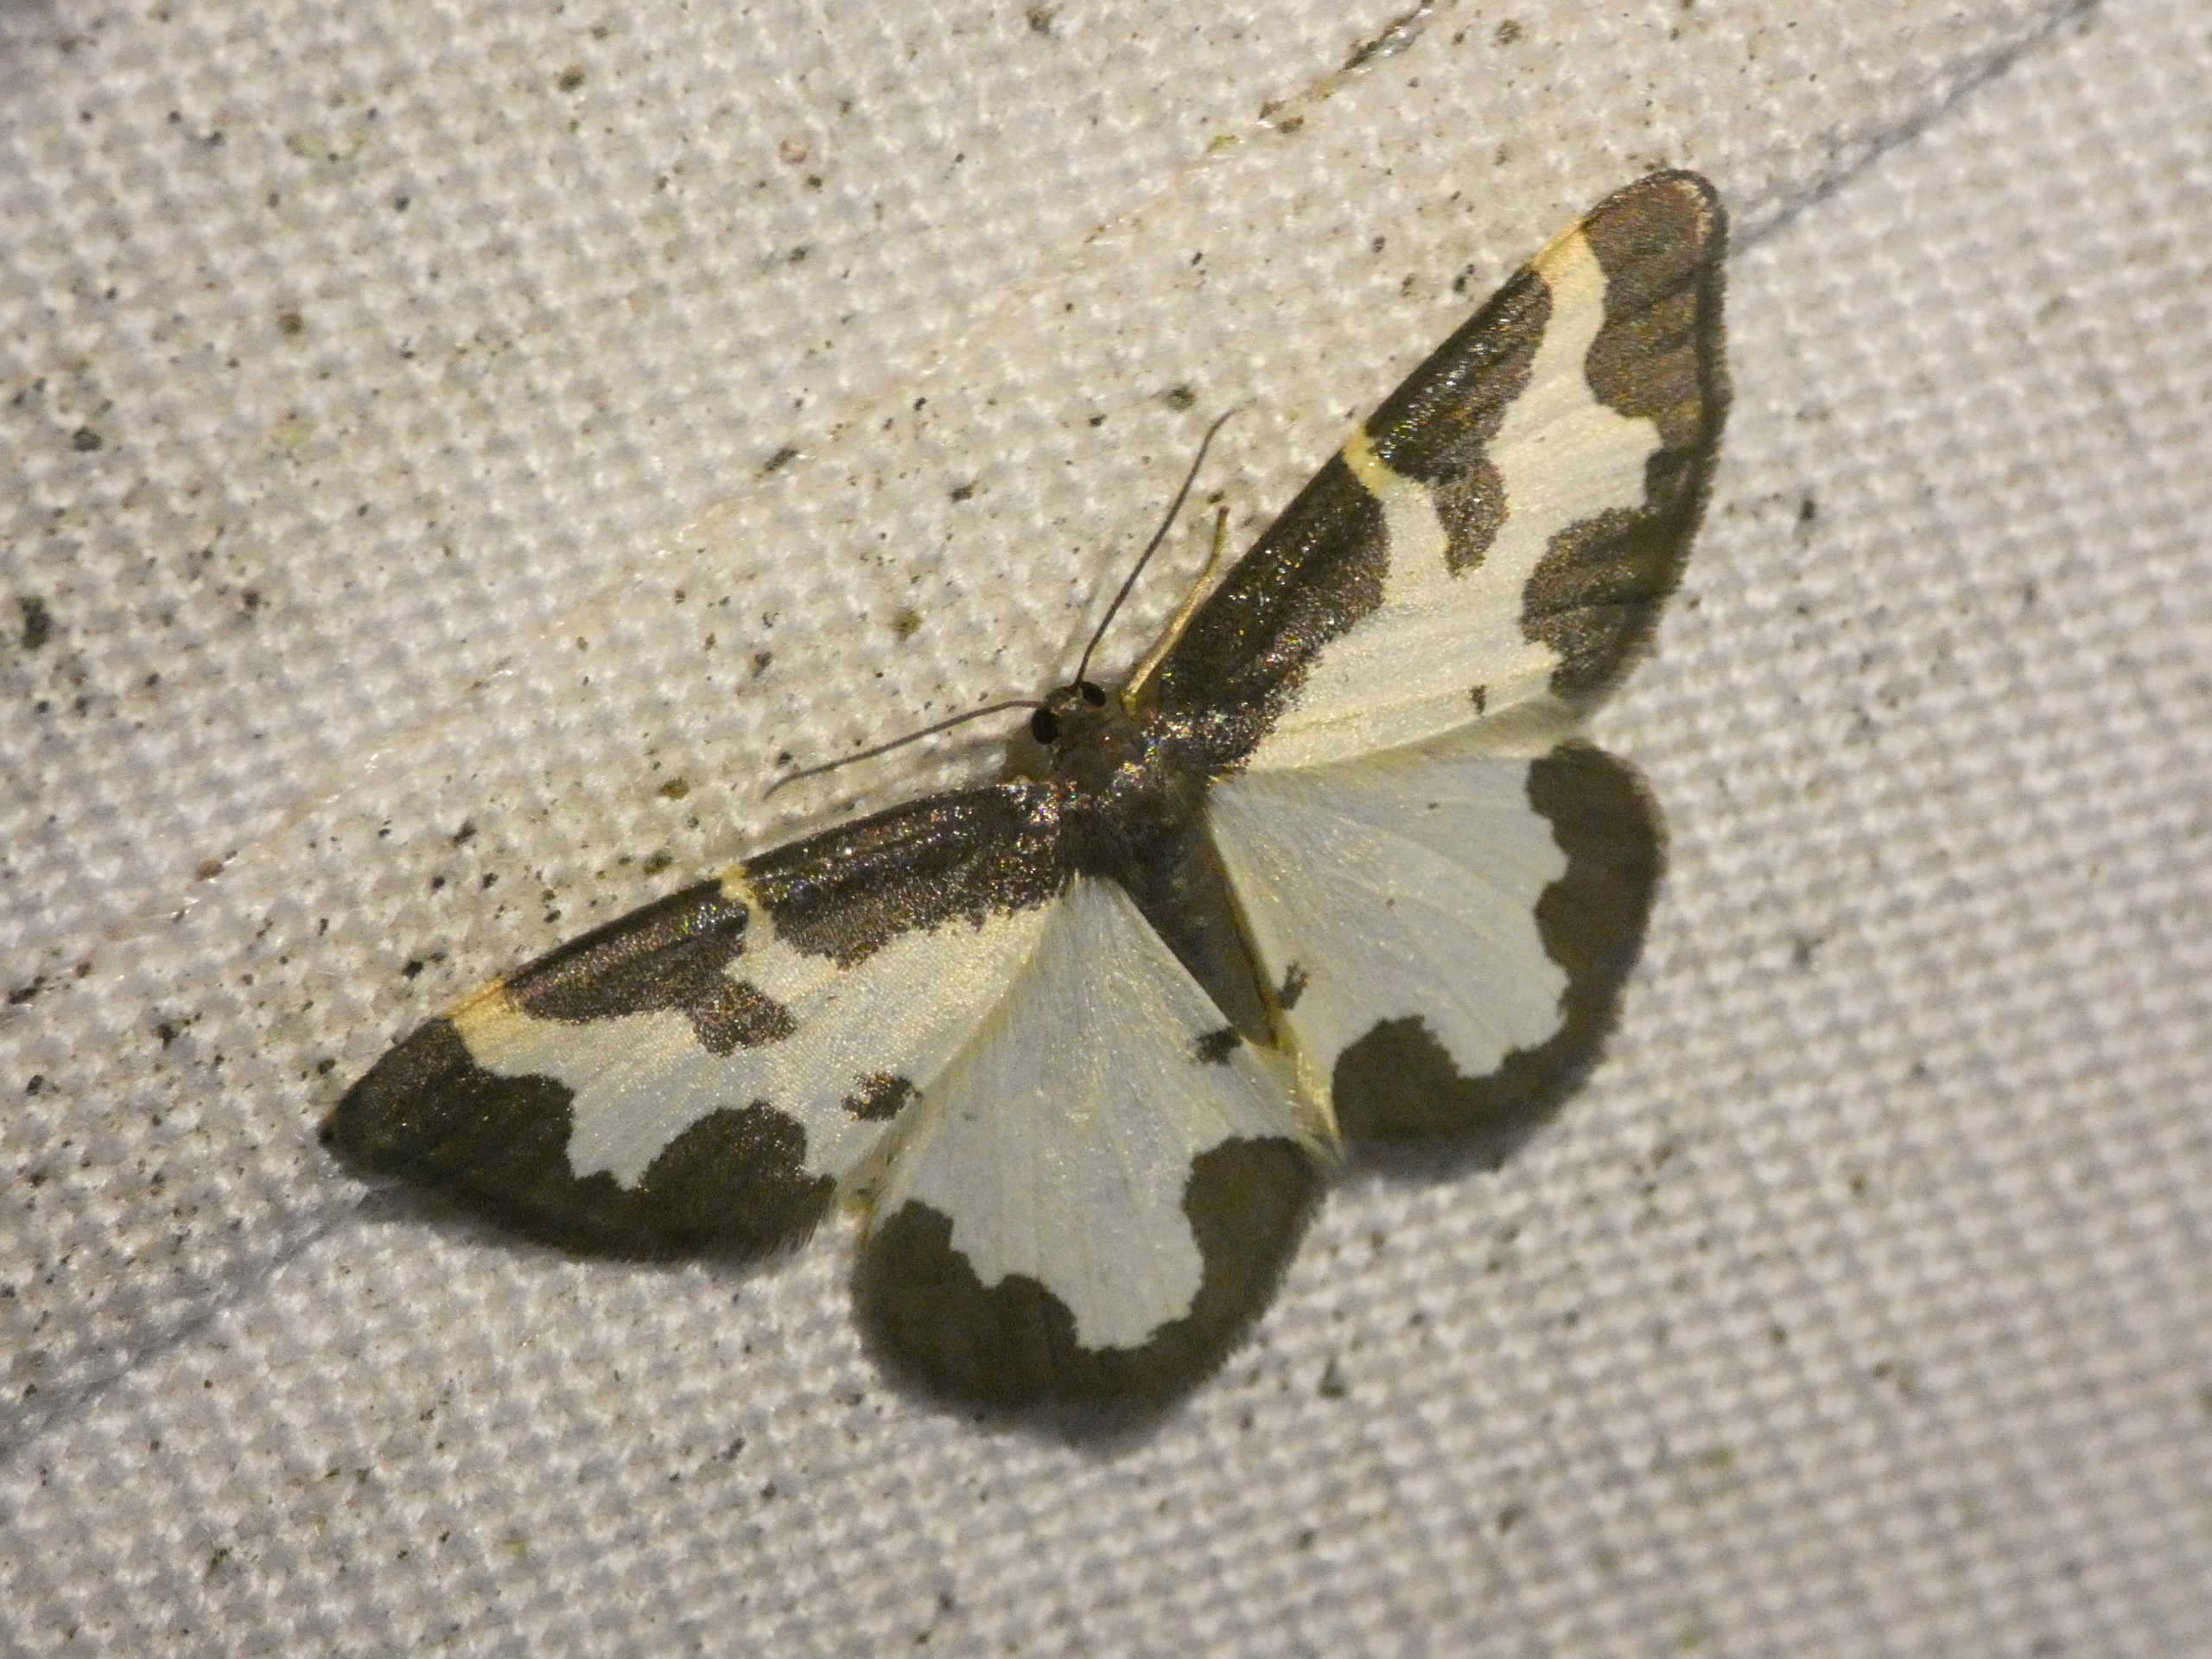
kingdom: Animalia
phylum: Arthropoda
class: Insecta
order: Lepidoptera
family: Geometridae
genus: Lomaspilis
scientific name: Lomaspilis marginata
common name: Sortrandet måler
